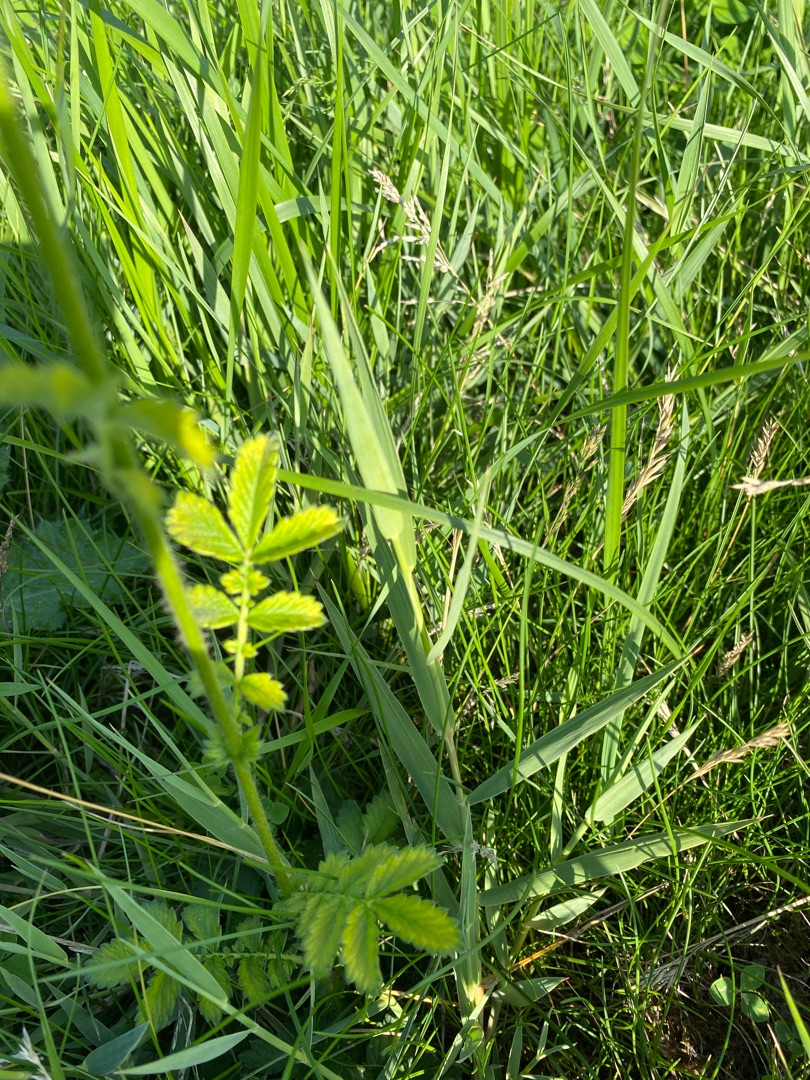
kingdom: Plantae
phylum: Tracheophyta
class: Magnoliopsida
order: Rosales
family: Rosaceae
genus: Agrimonia
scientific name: Agrimonia eupatoria
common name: Almindelig agermåne
